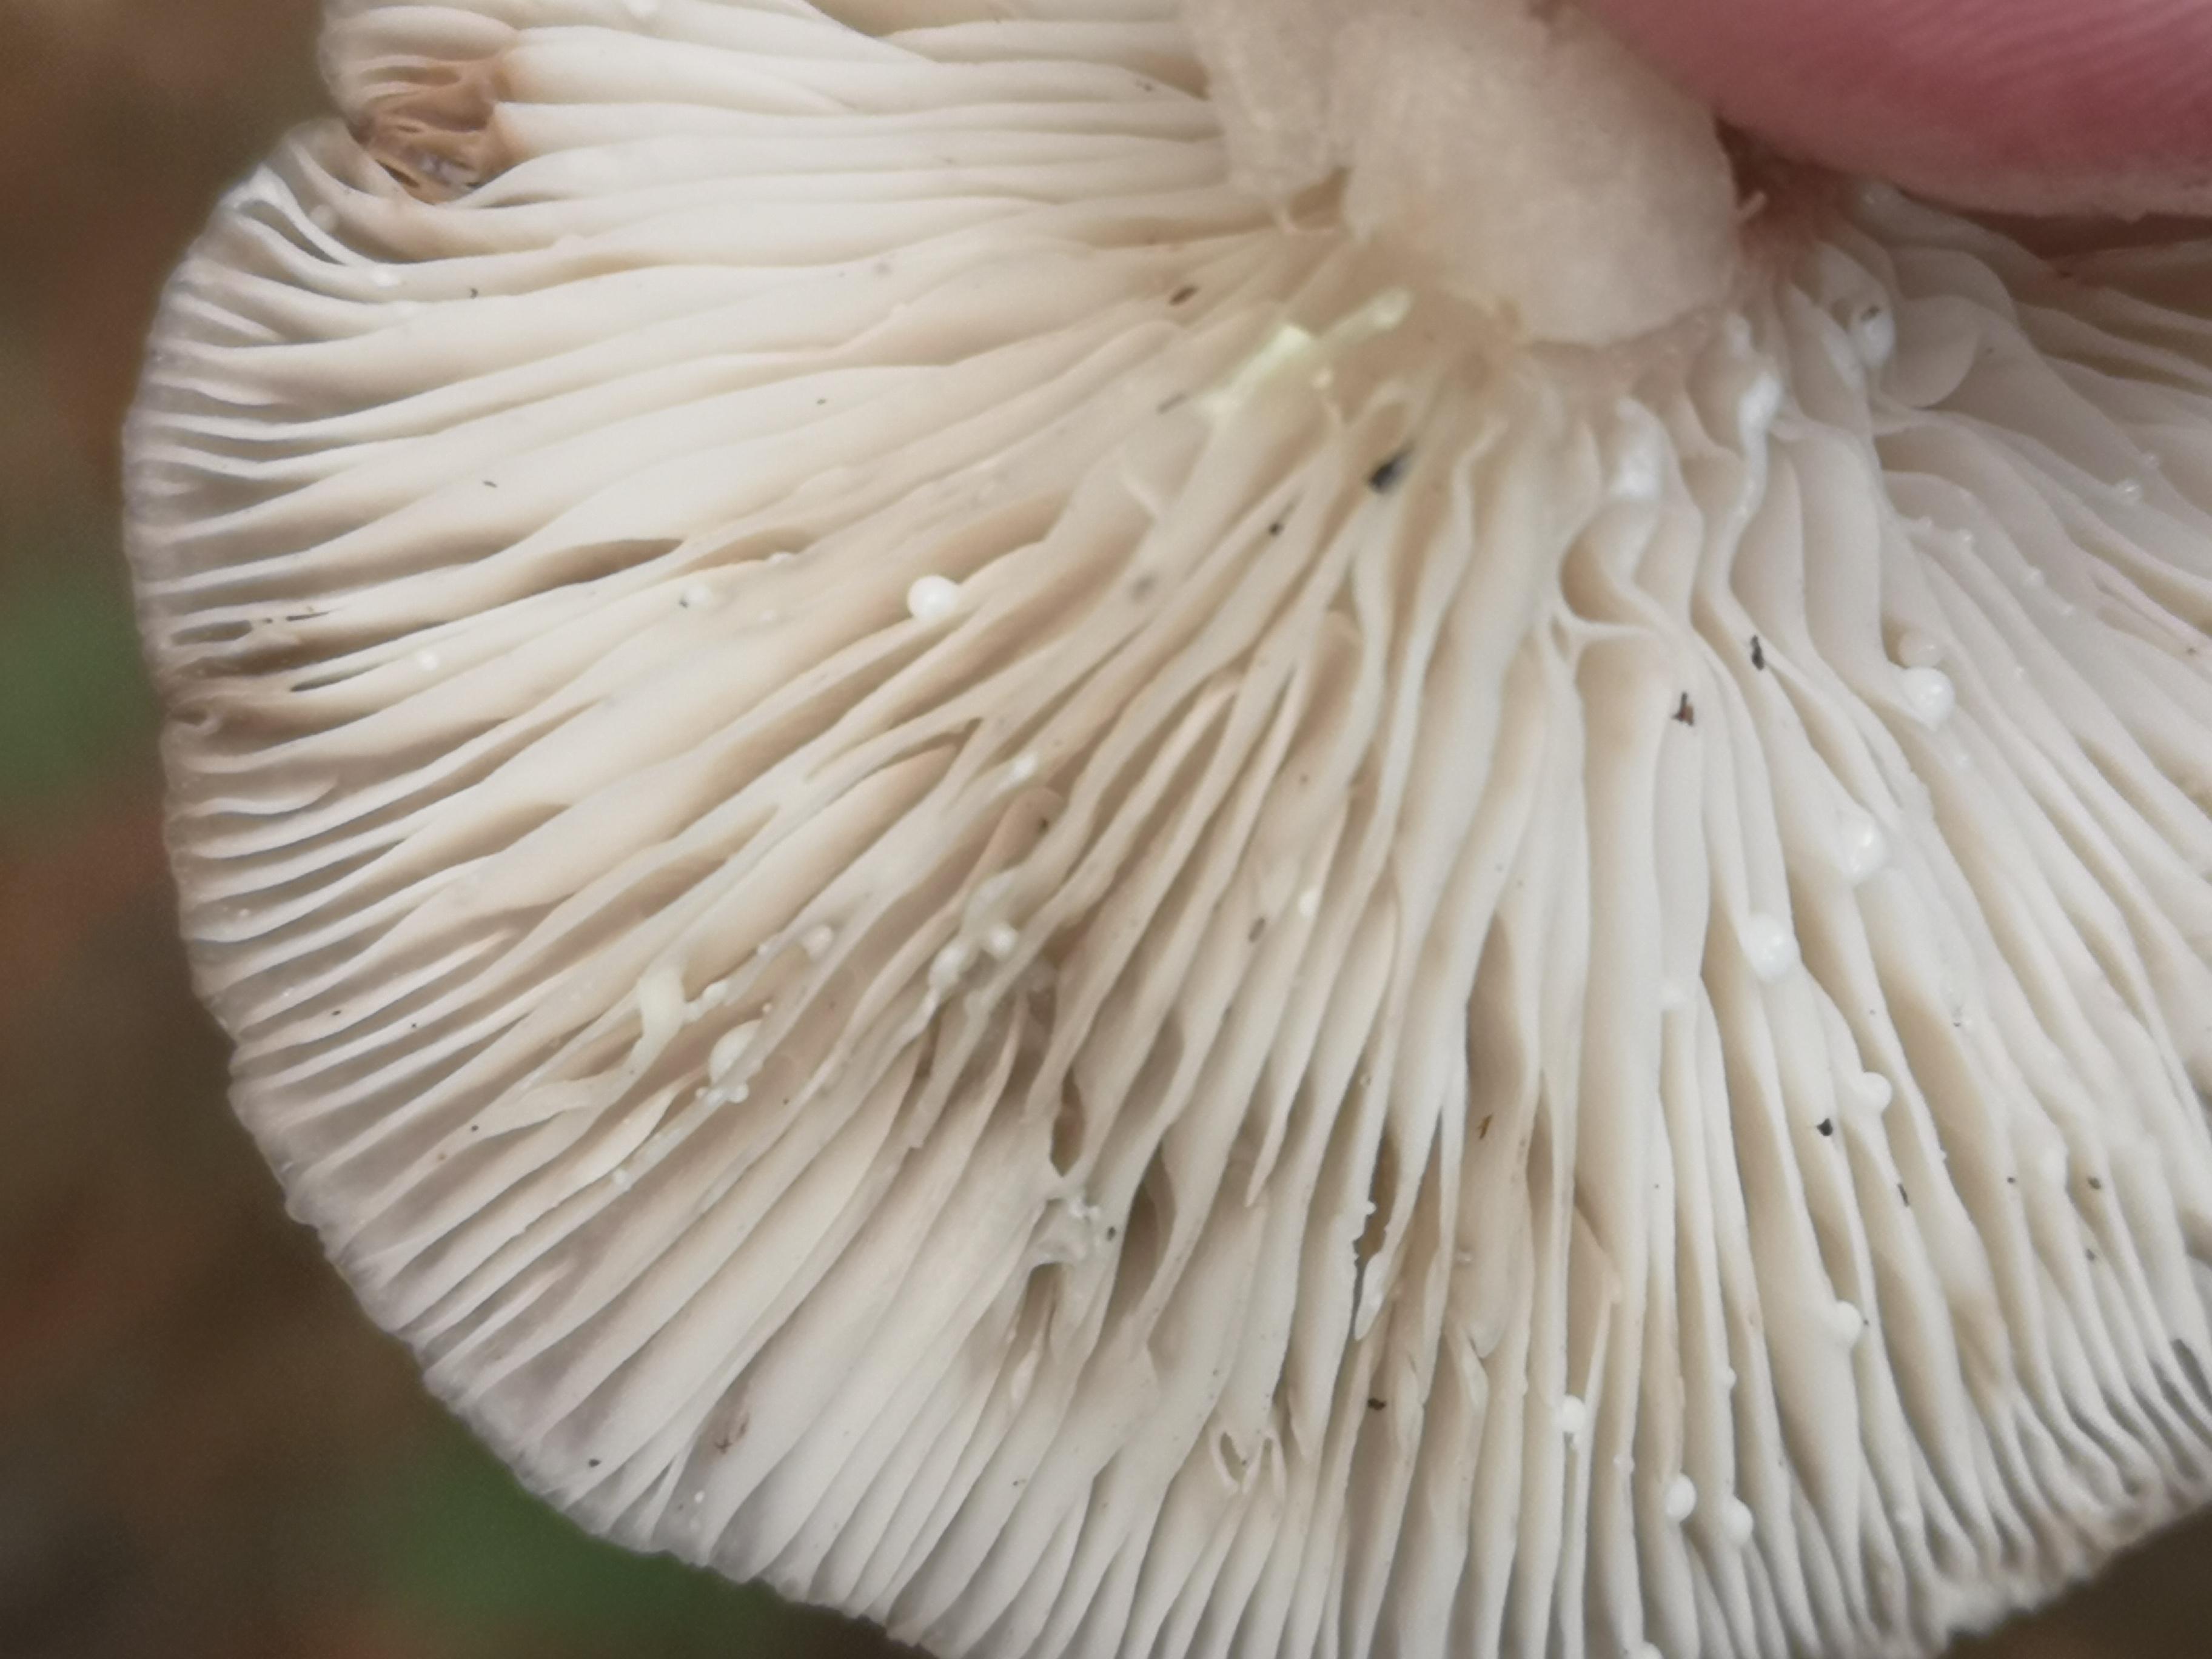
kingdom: Fungi
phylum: Basidiomycota
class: Agaricomycetes
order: Russulales
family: Russulaceae
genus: Lactarius
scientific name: Lactarius vietus
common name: violetgrå mælkehat
